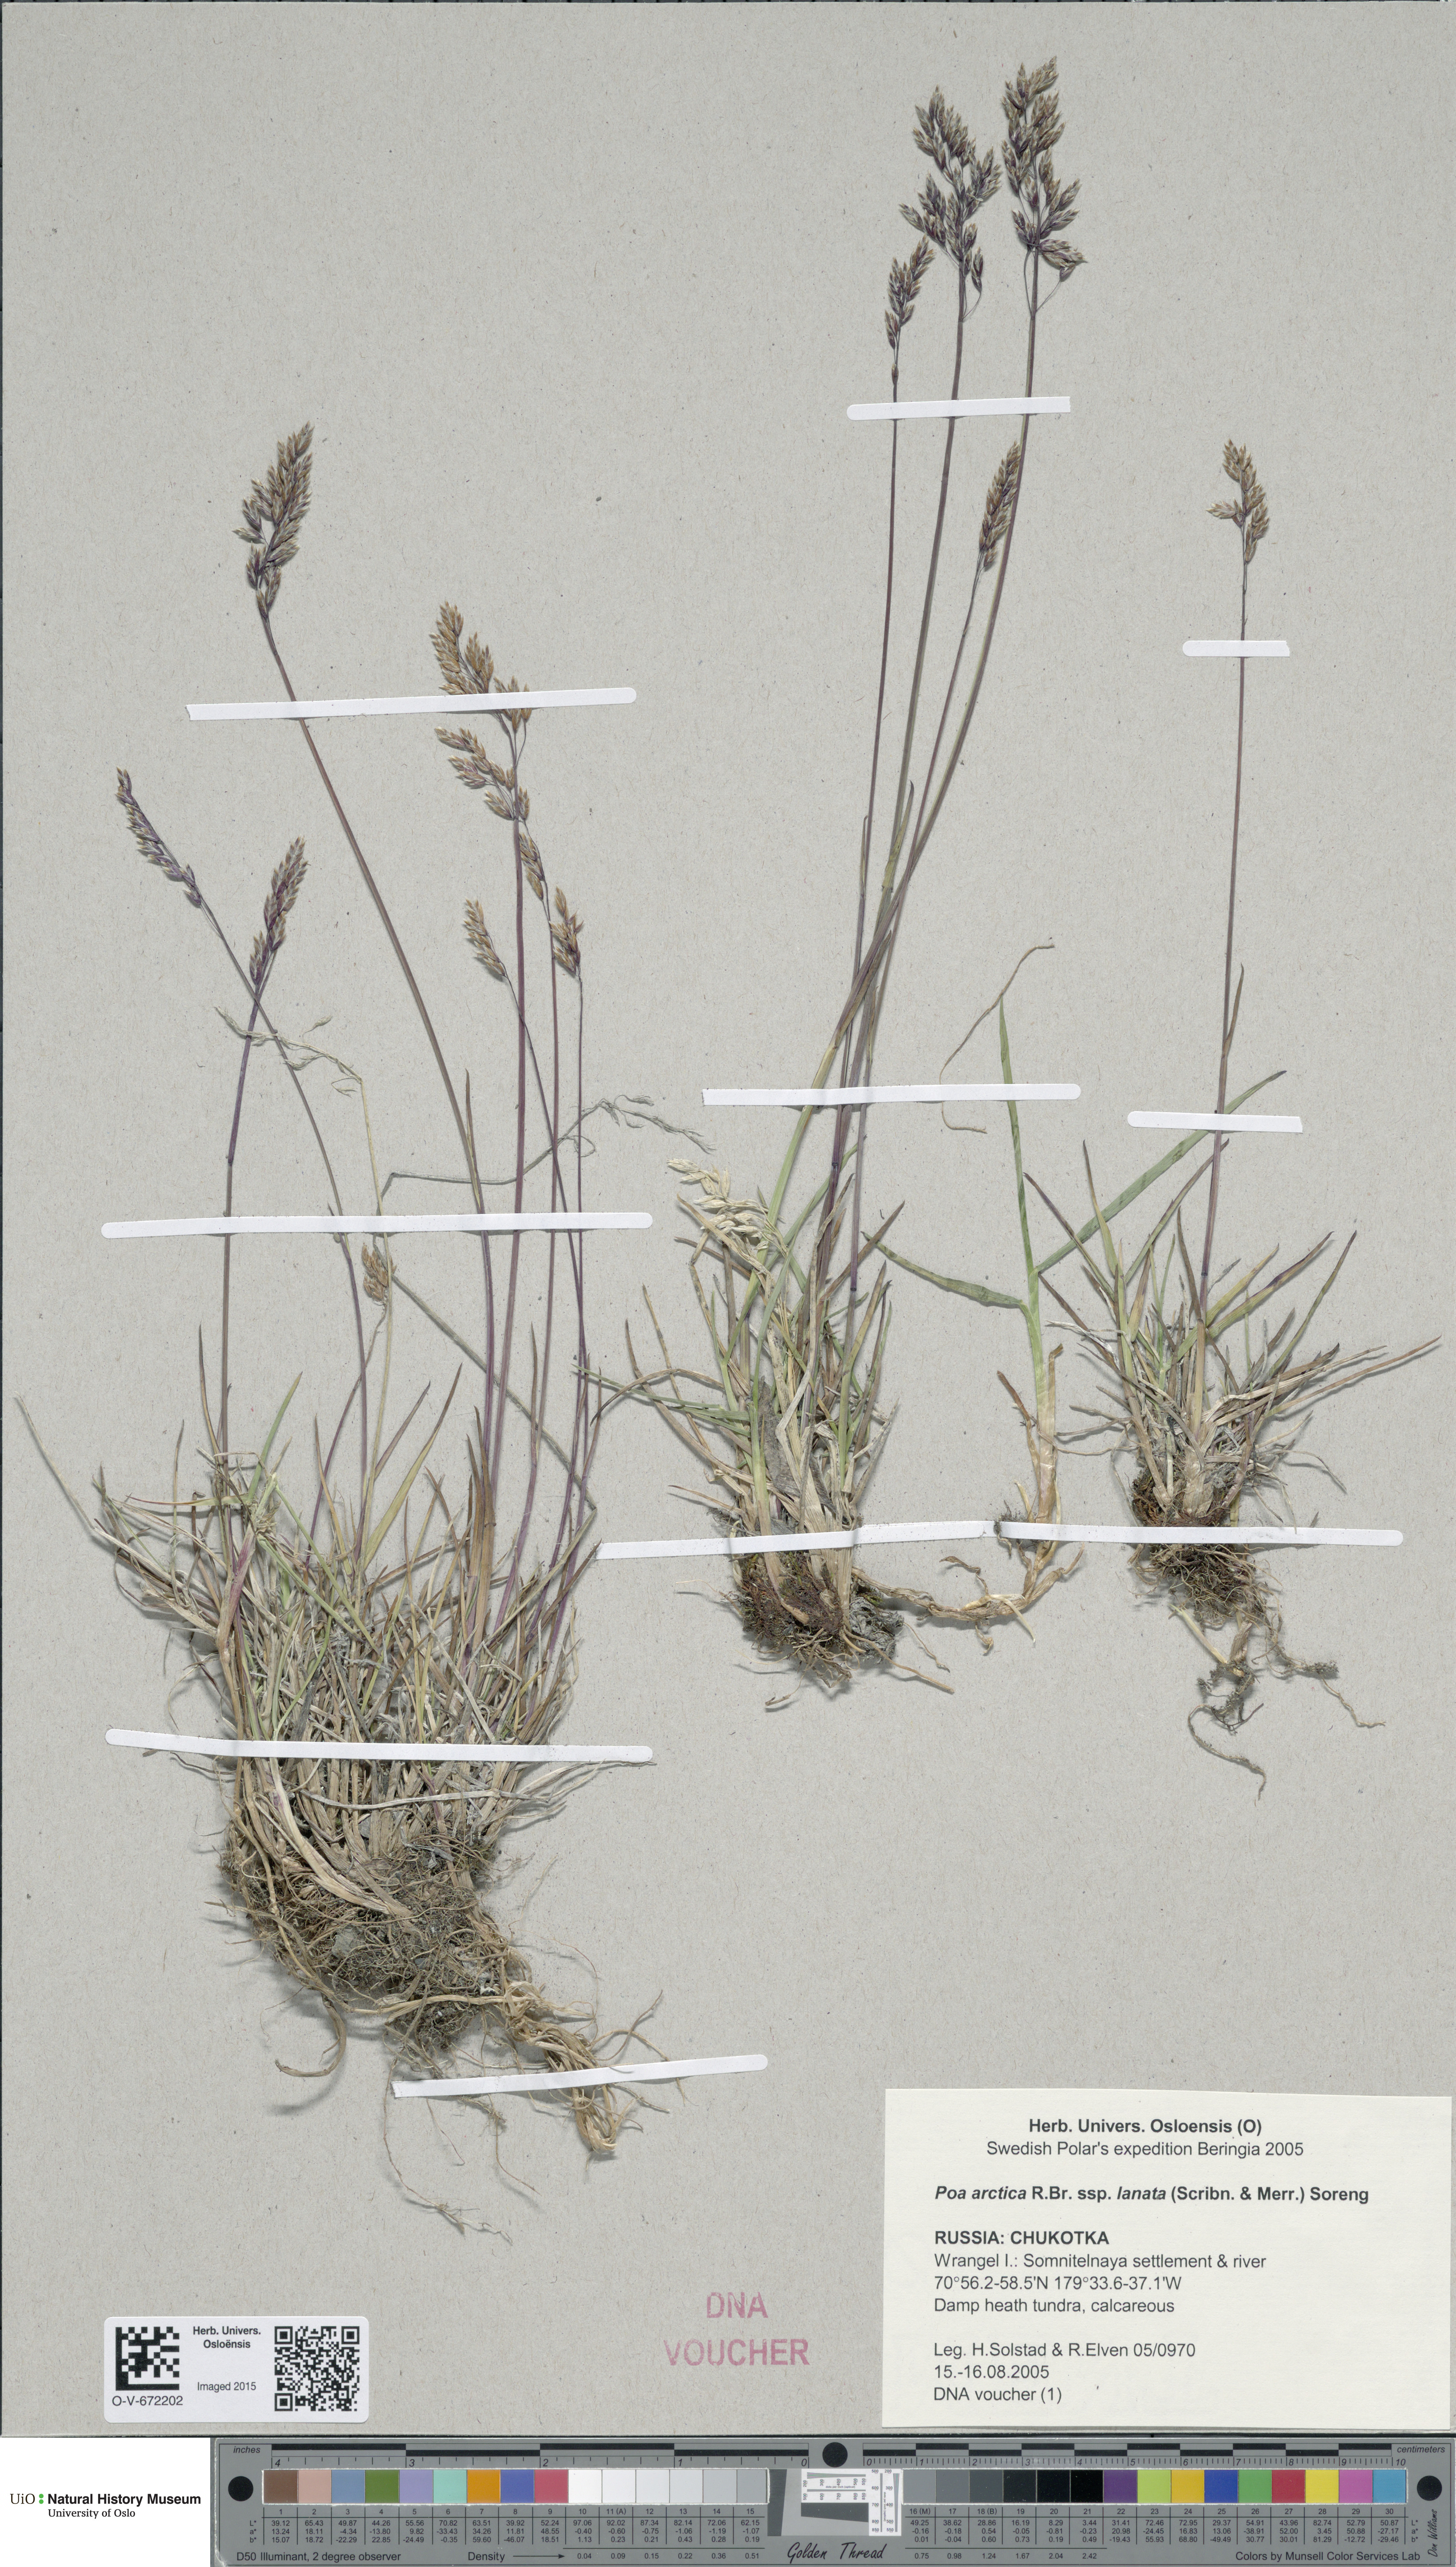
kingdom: Plantae
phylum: Tracheophyta
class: Liliopsida
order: Poales
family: Poaceae
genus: Poa
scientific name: Poa lanata
